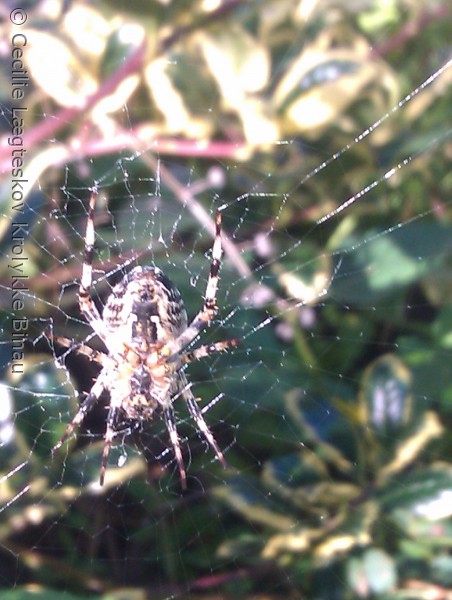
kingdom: Animalia
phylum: Arthropoda
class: Arachnida
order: Araneae
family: Araneidae
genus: Araneus
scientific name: Araneus diadematus
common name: Korsedderkop
